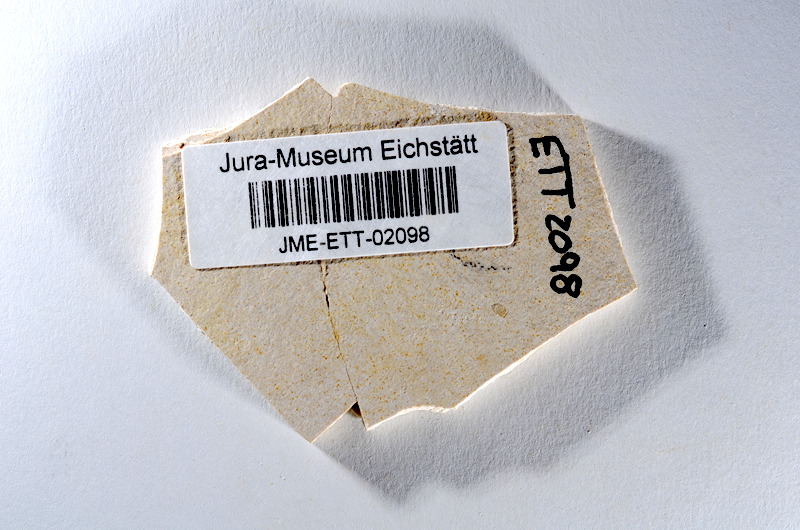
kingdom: Animalia
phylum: Chordata
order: Salmoniformes
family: Orthogonikleithridae
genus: Orthogonikleithrus
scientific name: Orthogonikleithrus hoelli
